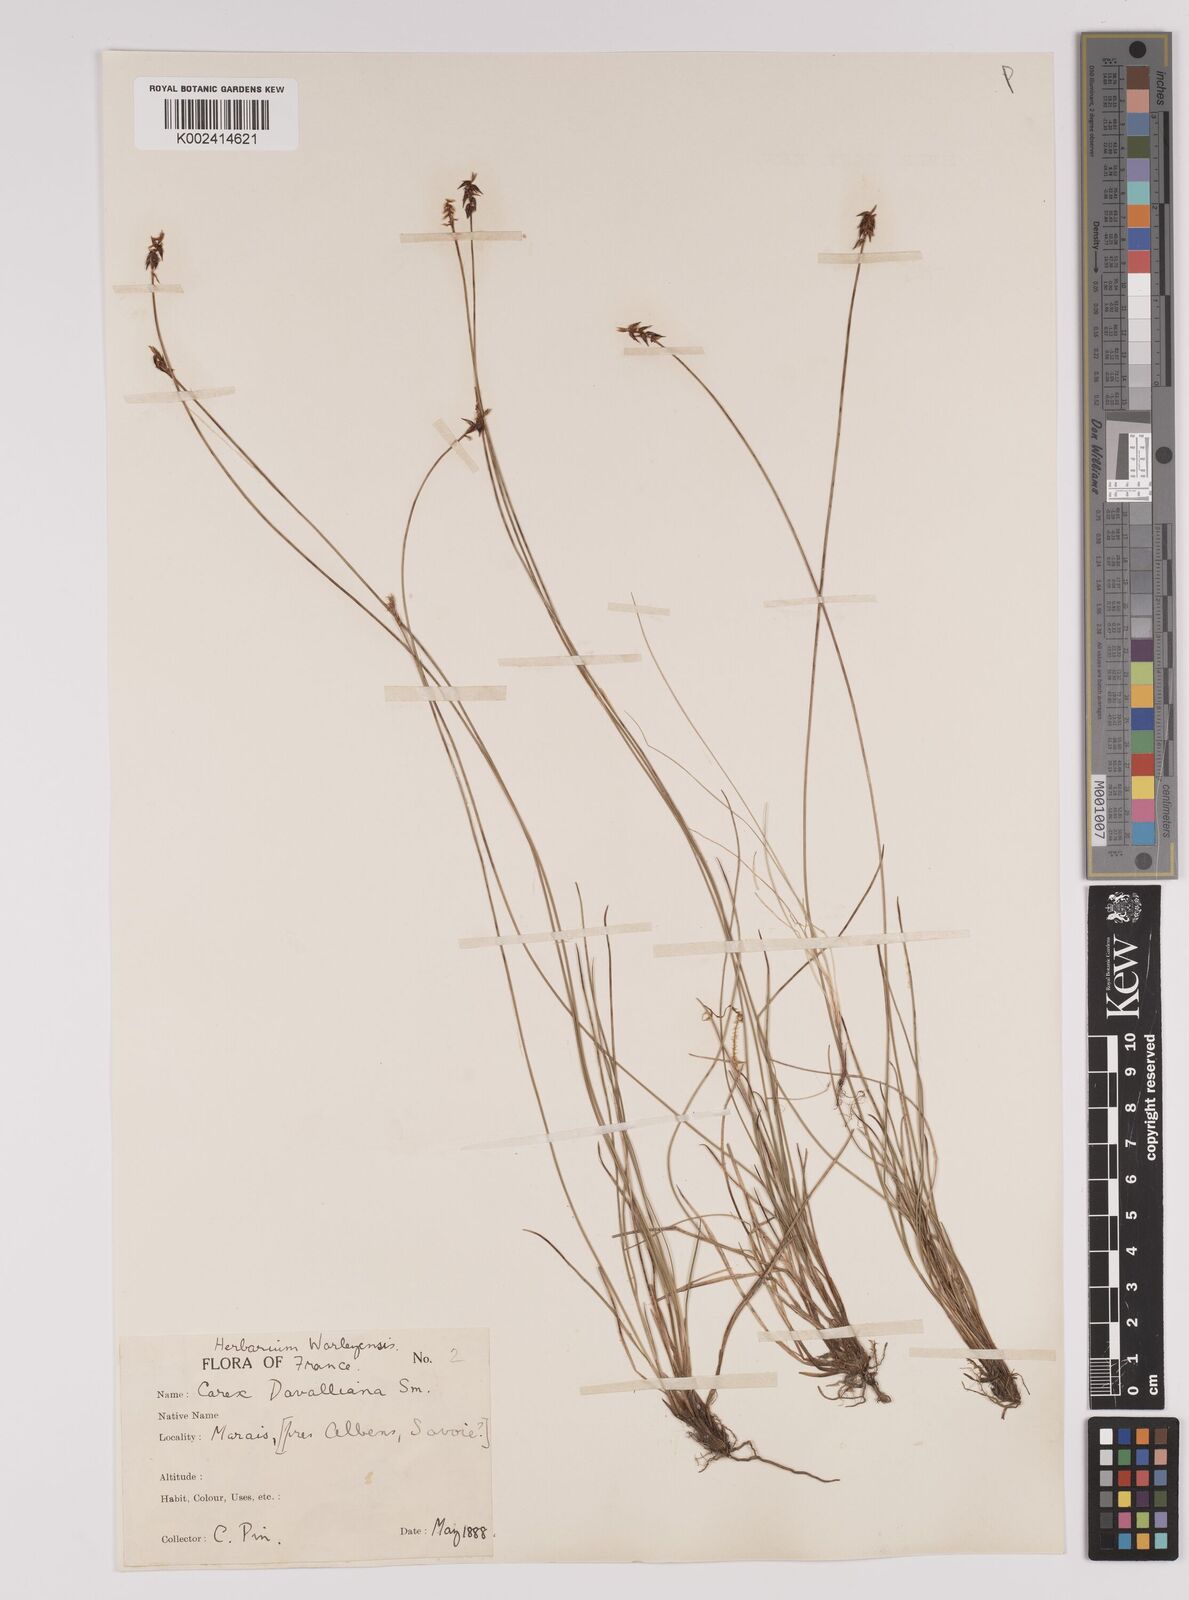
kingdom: Plantae
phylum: Tracheophyta
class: Liliopsida
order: Poales
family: Cyperaceae
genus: Carex
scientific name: Carex davalliana
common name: Davall's sedge
